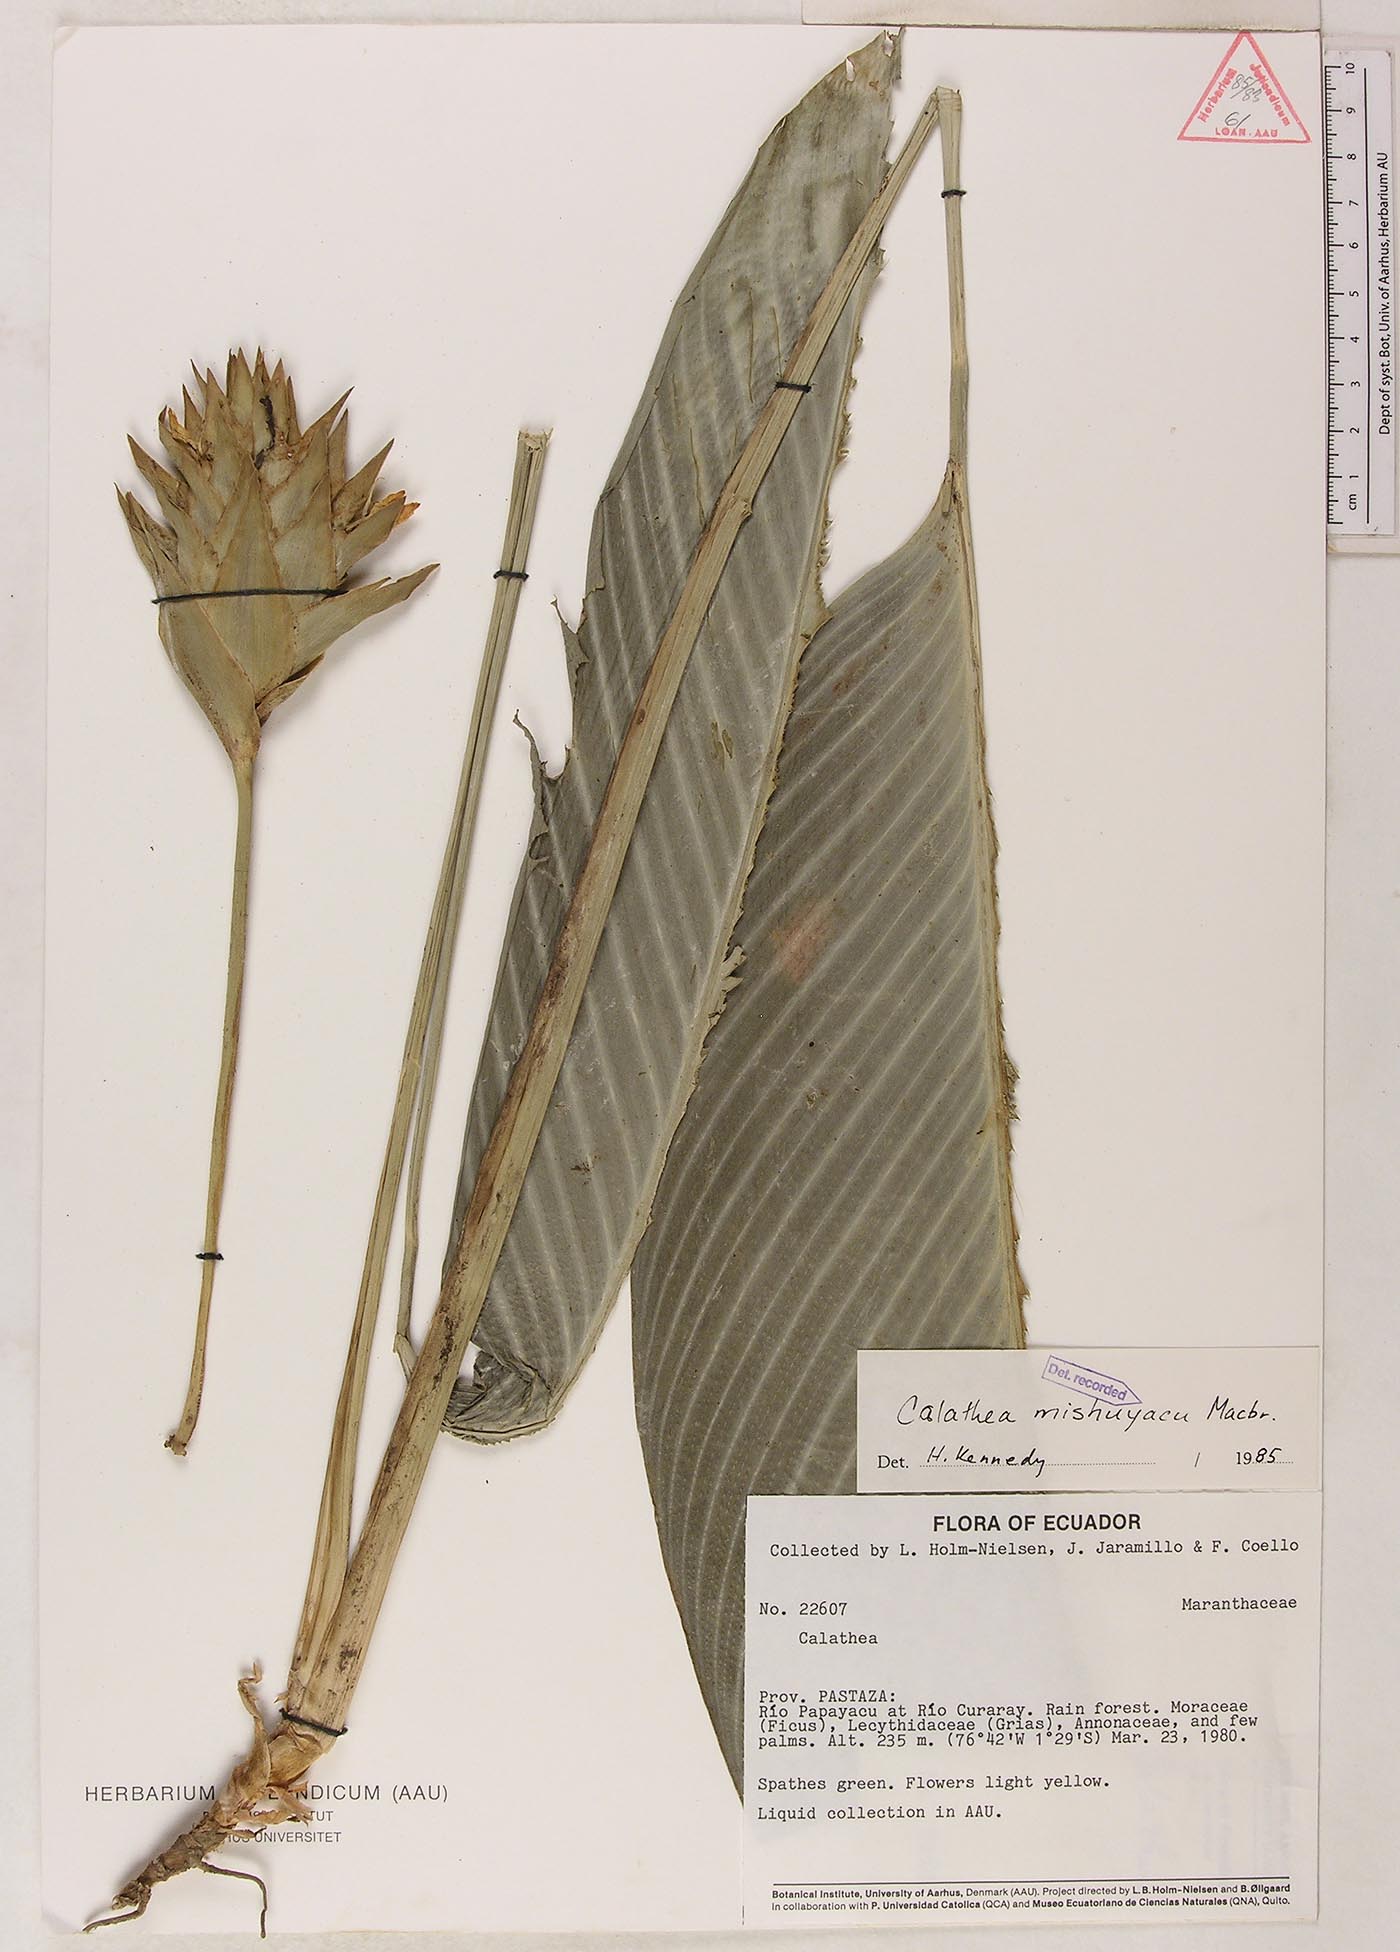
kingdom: Plantae
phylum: Tracheophyta
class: Liliopsida
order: Zingiberales
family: Marantaceae
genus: Goeppertia
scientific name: Goeppertia mishuyacu
